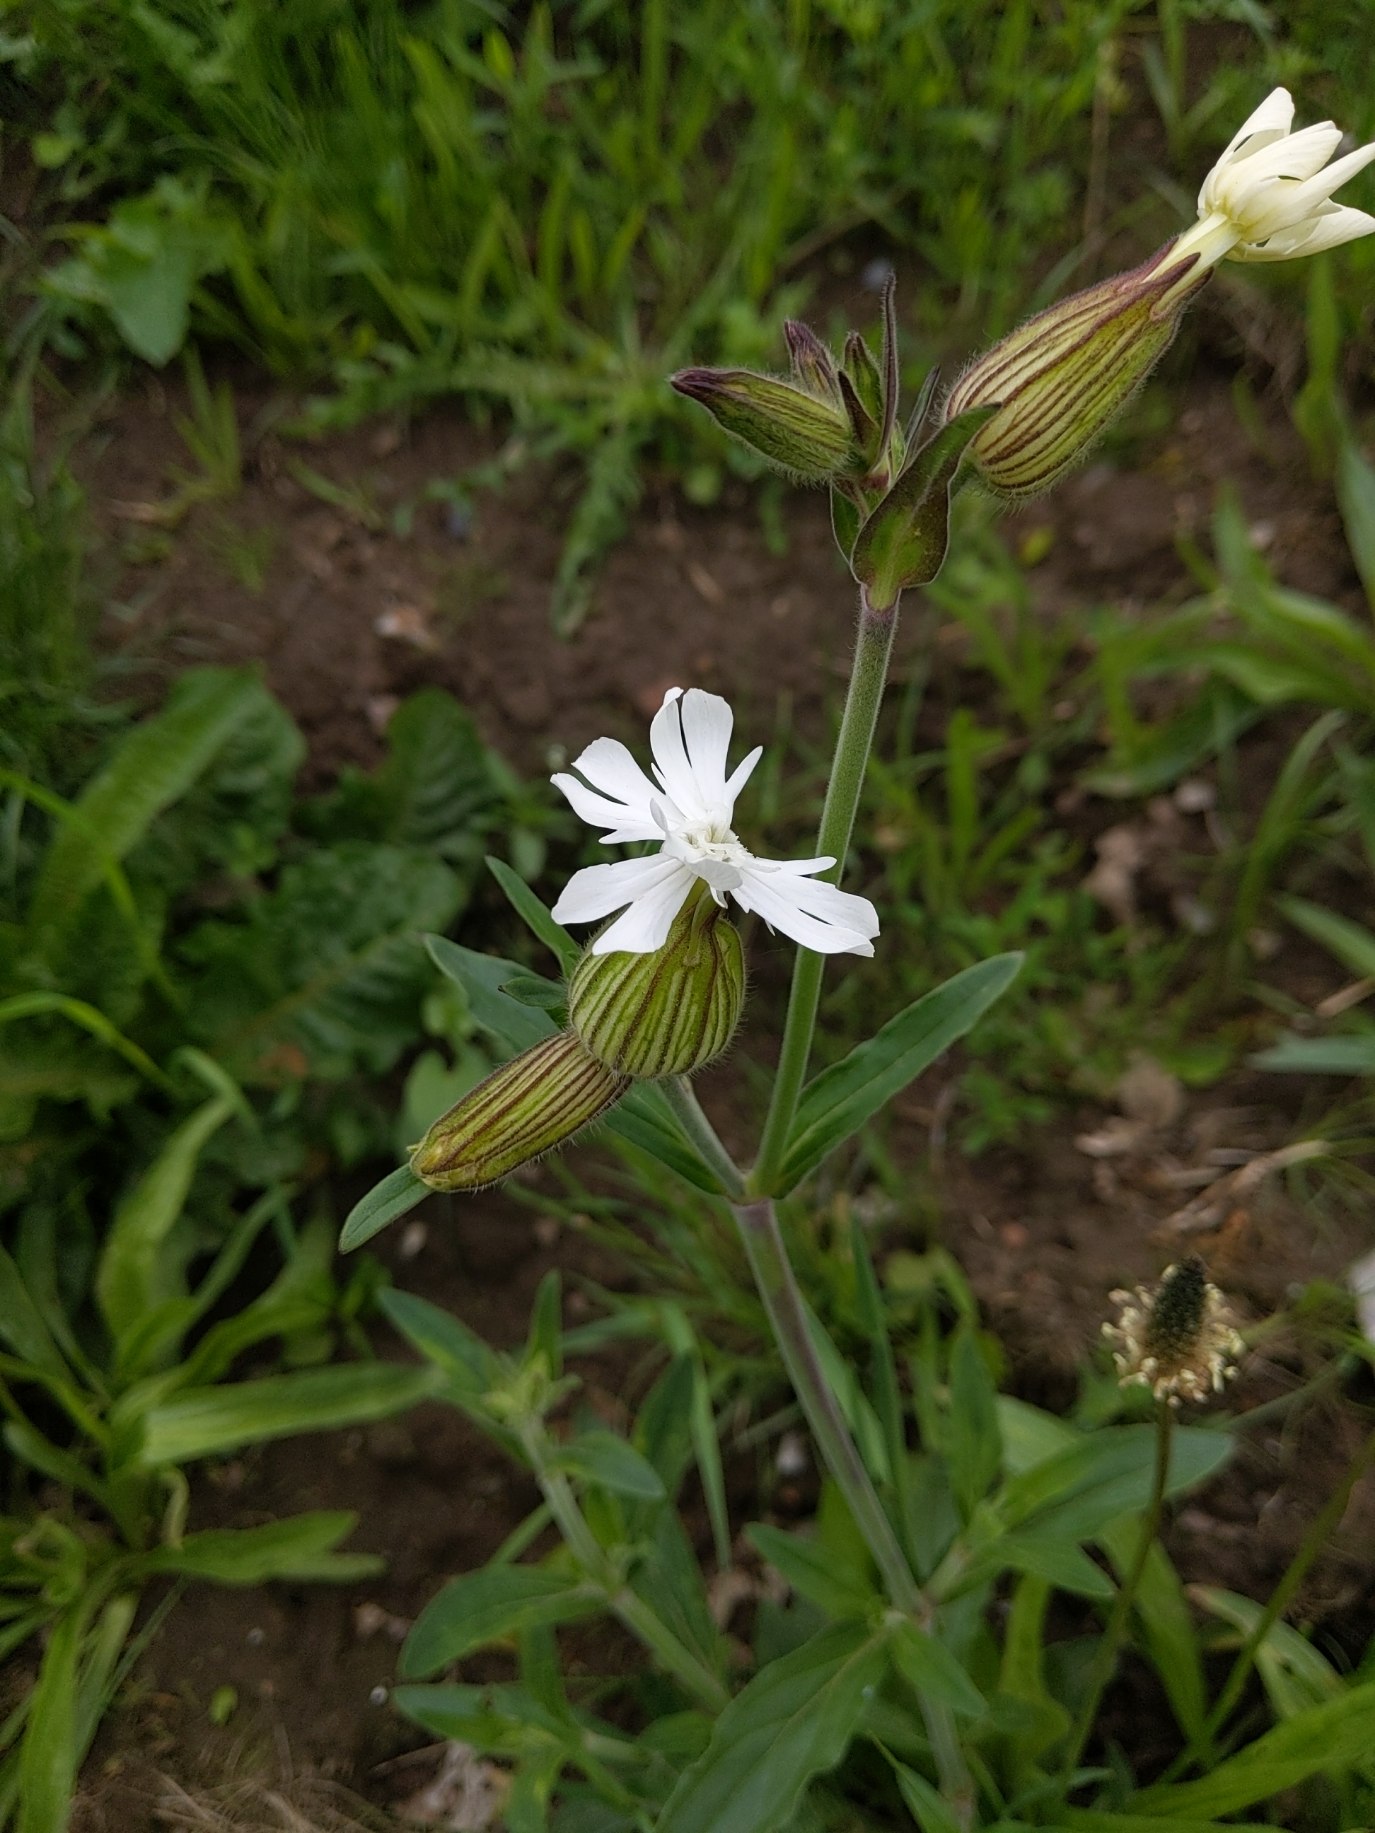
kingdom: Plantae
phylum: Tracheophyta
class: Magnoliopsida
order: Caryophyllales
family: Caryophyllaceae
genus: Silene
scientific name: Silene latifolia
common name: Aftenpragtstjerne
